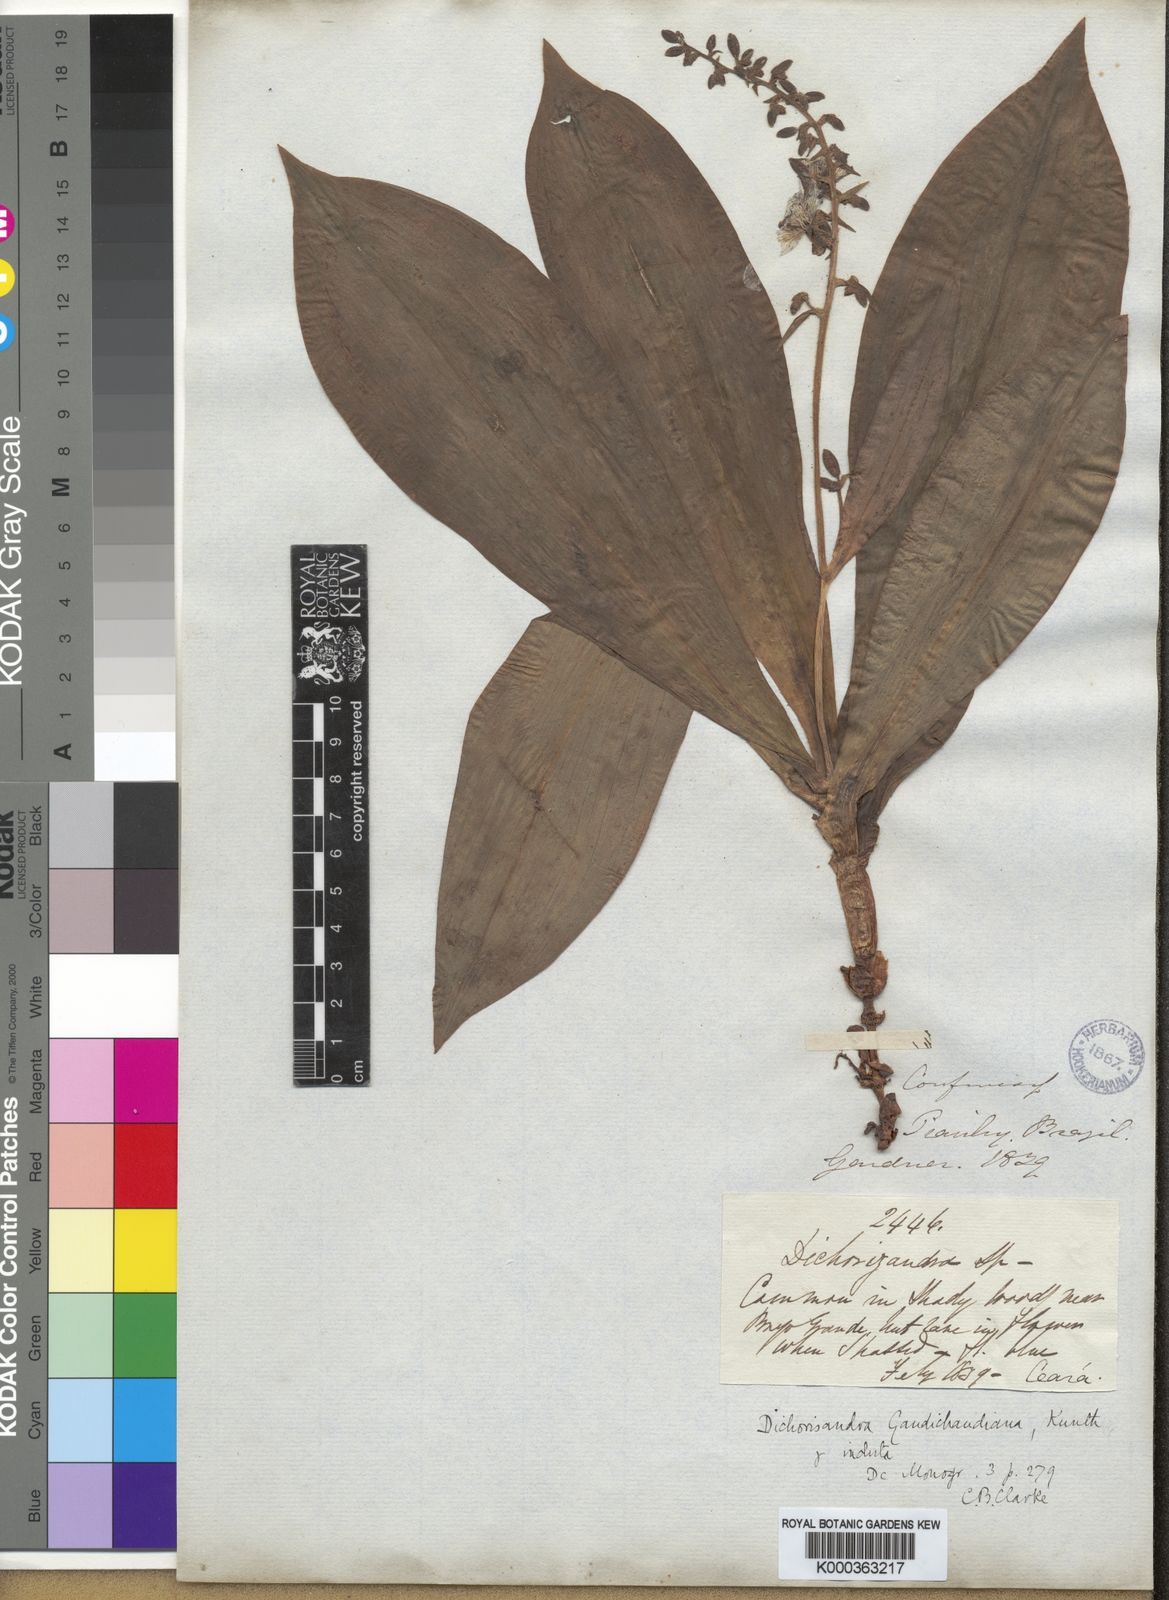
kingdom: Plantae
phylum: Tracheophyta
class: Liliopsida
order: Commelinales
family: Commelinaceae
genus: Dichorisandra
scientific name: Dichorisandra perforans
